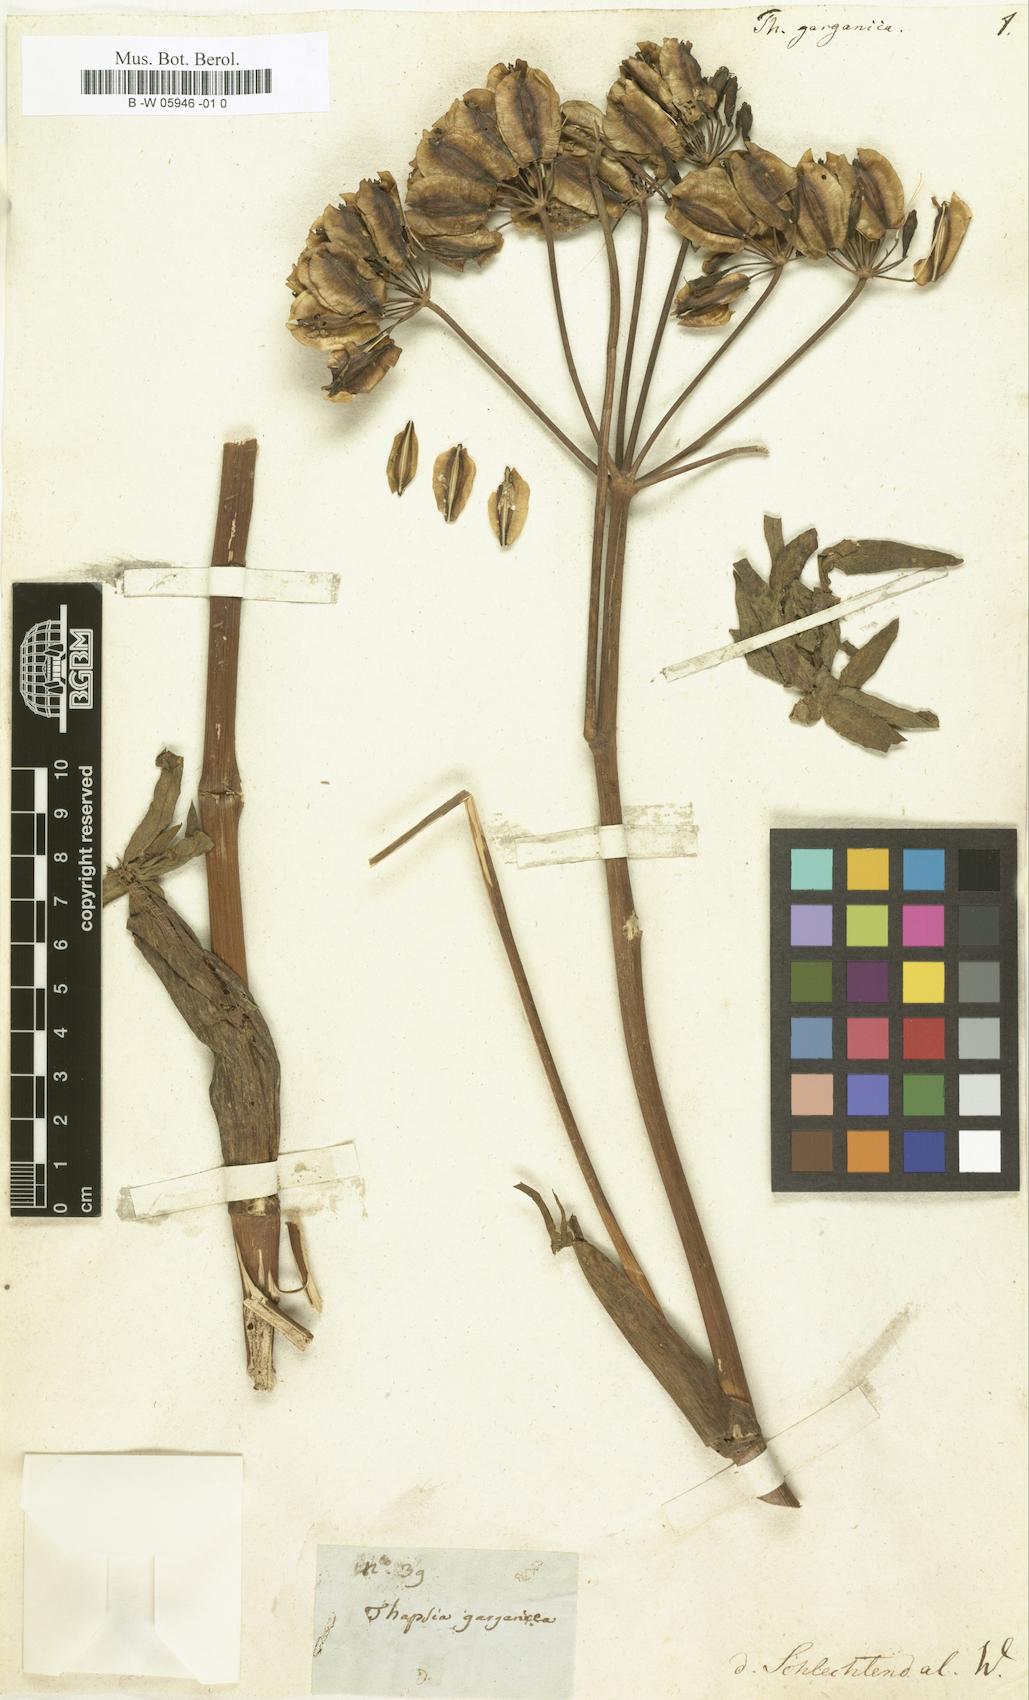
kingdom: Plantae
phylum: Tracheophyta
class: Magnoliopsida
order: Apiales
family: Apiaceae
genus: Thapsia
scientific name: Thapsia garganica
